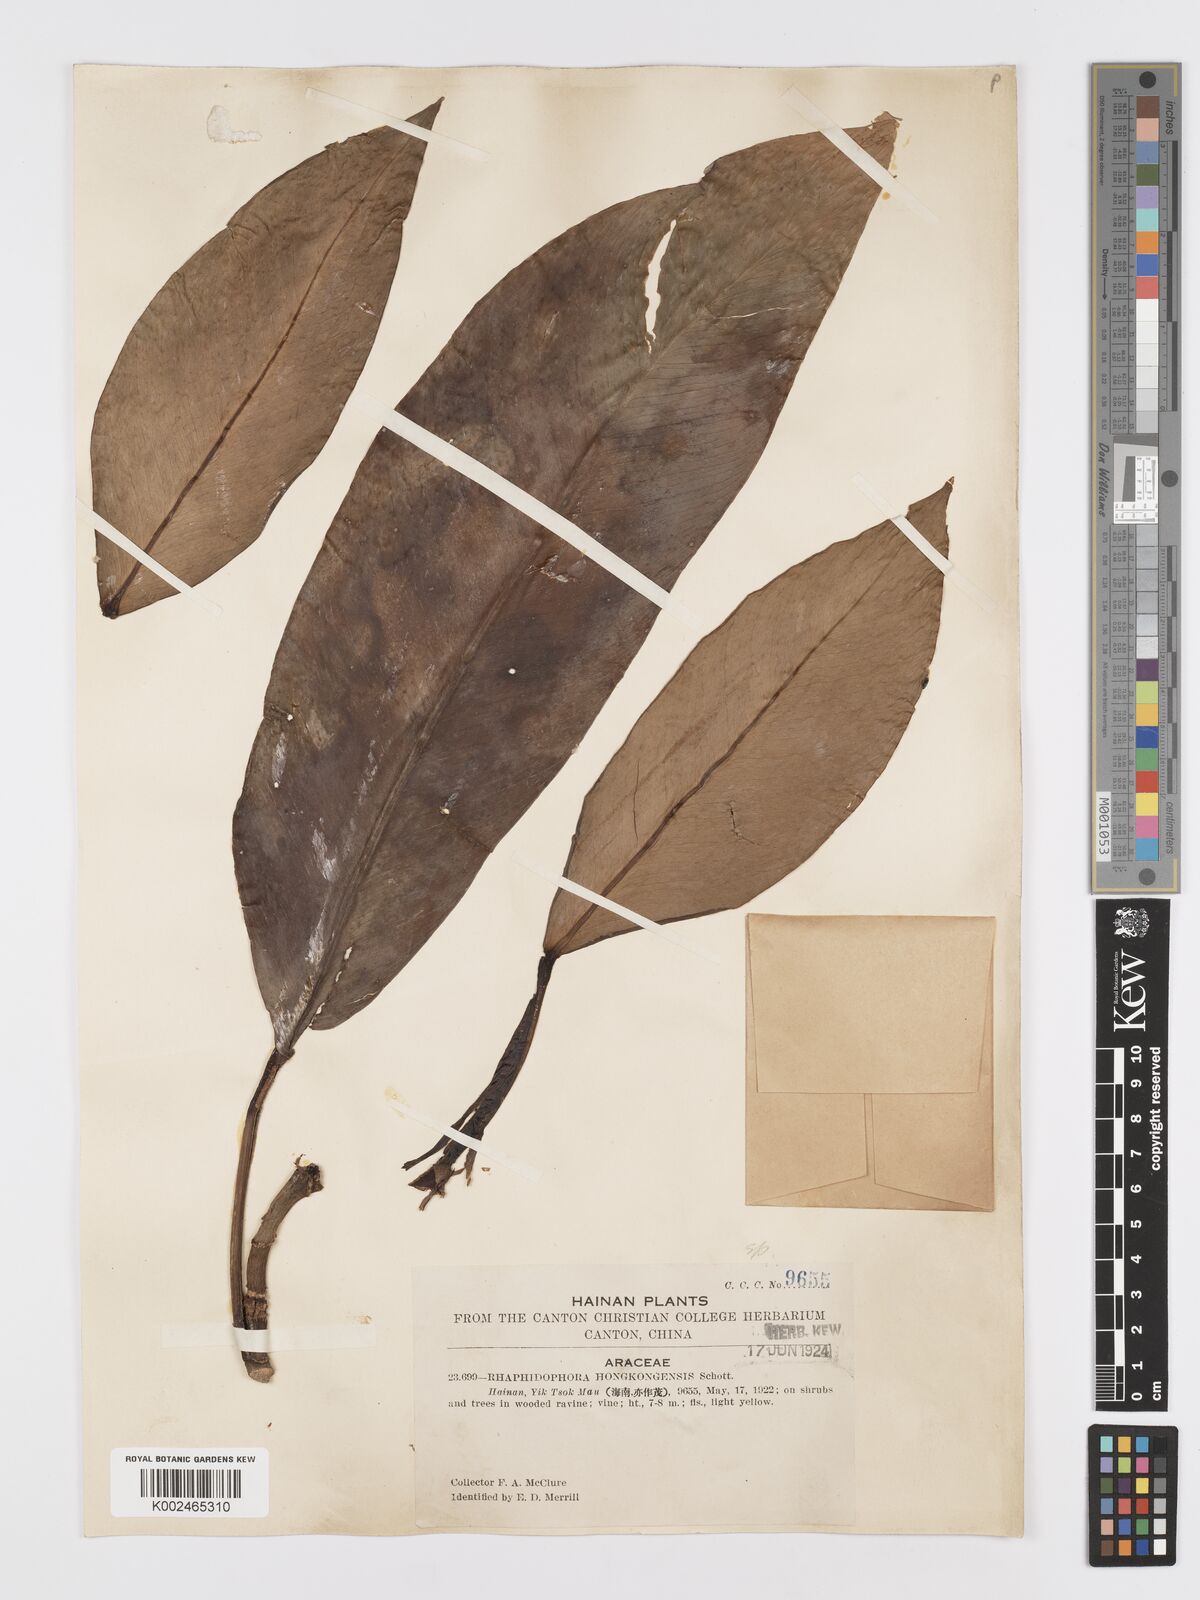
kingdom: Plantae
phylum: Tracheophyta
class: Liliopsida
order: Alismatales
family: Araceae
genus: Rhaphidophora
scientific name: Rhaphidophora
